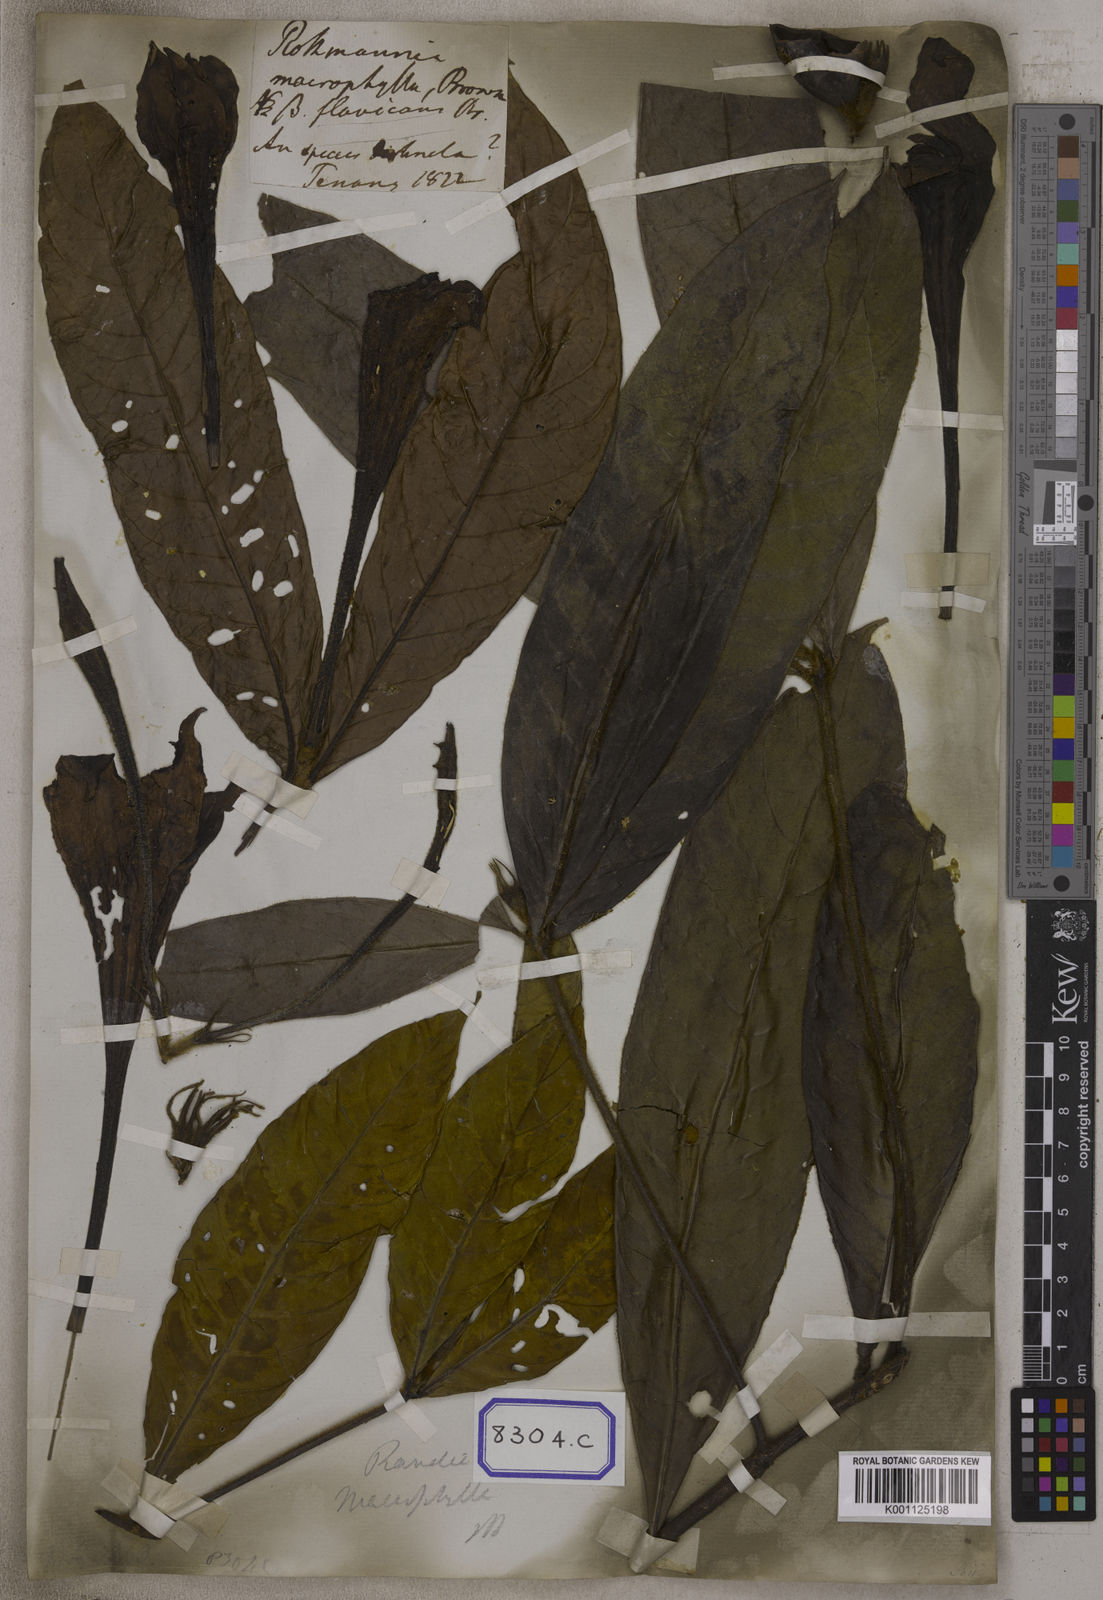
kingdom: Plantae
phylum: Tracheophyta
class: Magnoliopsida
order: Gentianales
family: Rubiaceae
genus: Singaporandia
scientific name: Singaporandia macrophylla
